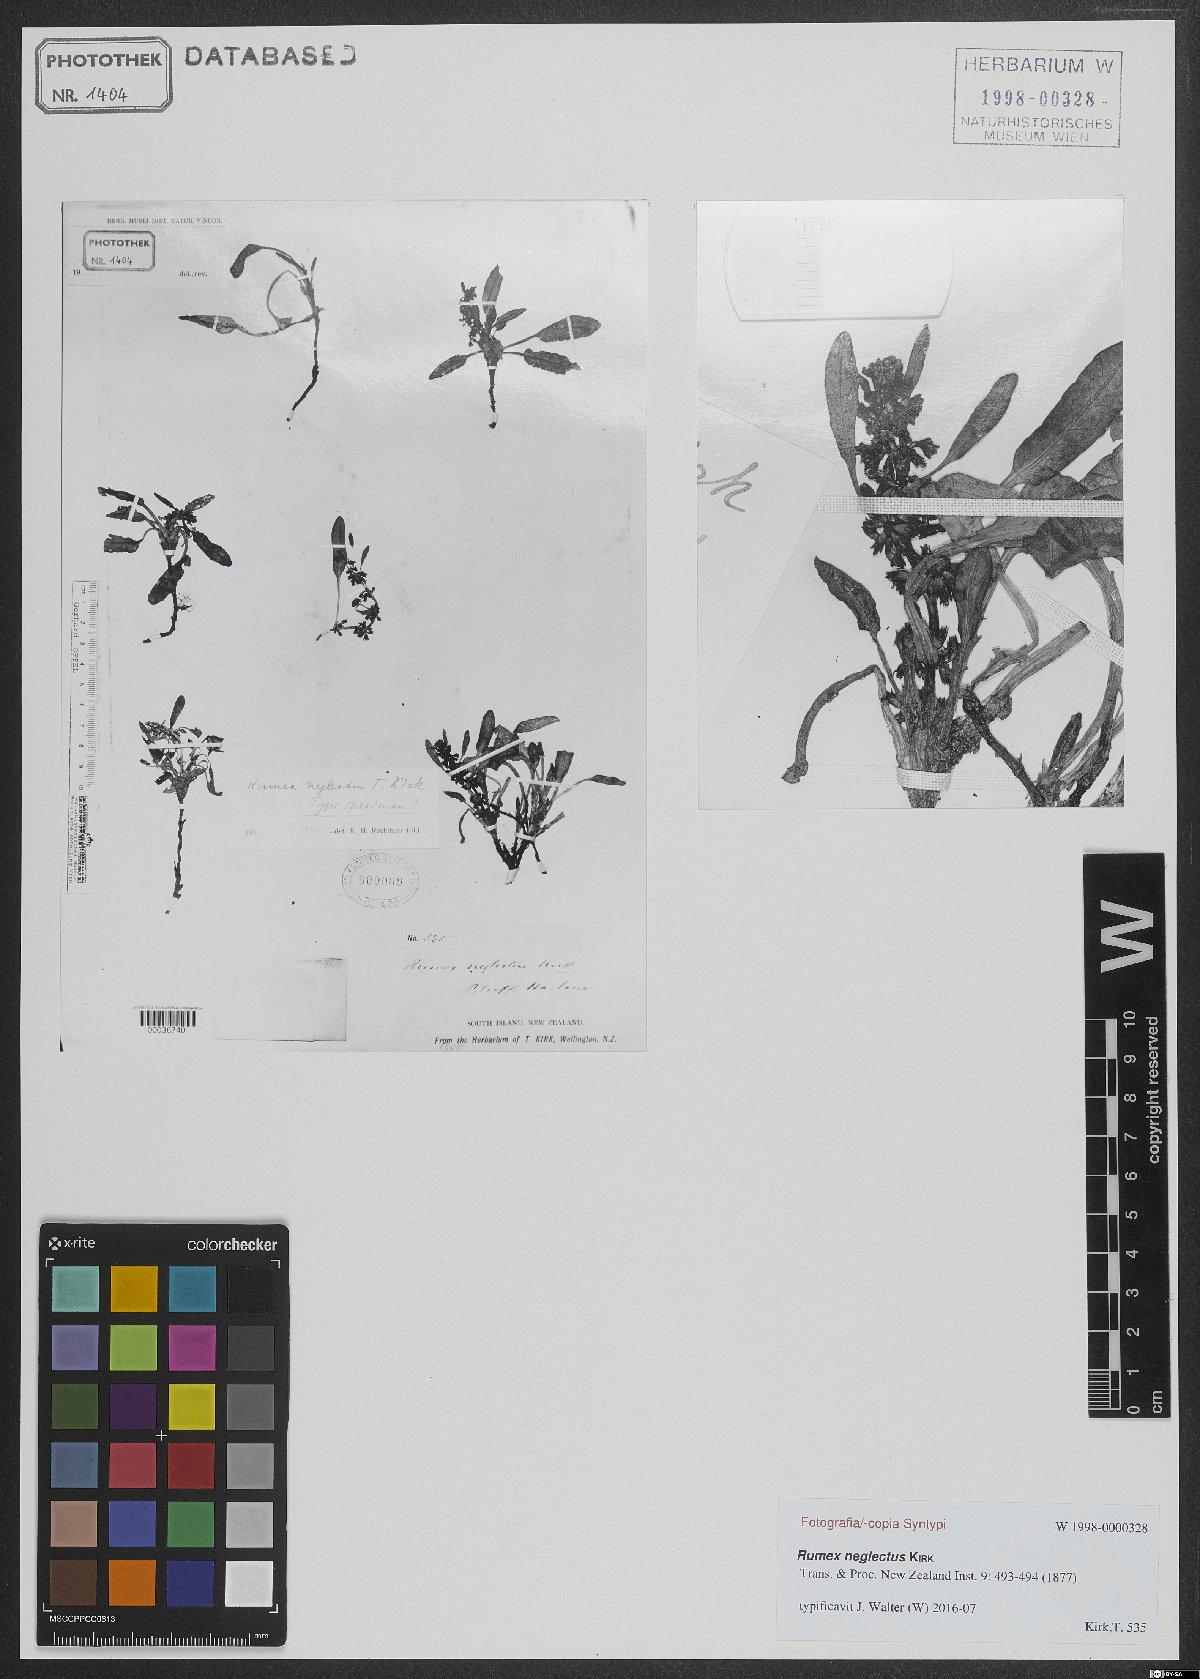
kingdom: Plantae
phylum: Tracheophyta
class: Magnoliopsida
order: Caryophyllales
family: Polygonaceae
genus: Rumex
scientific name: Rumex neglectus
